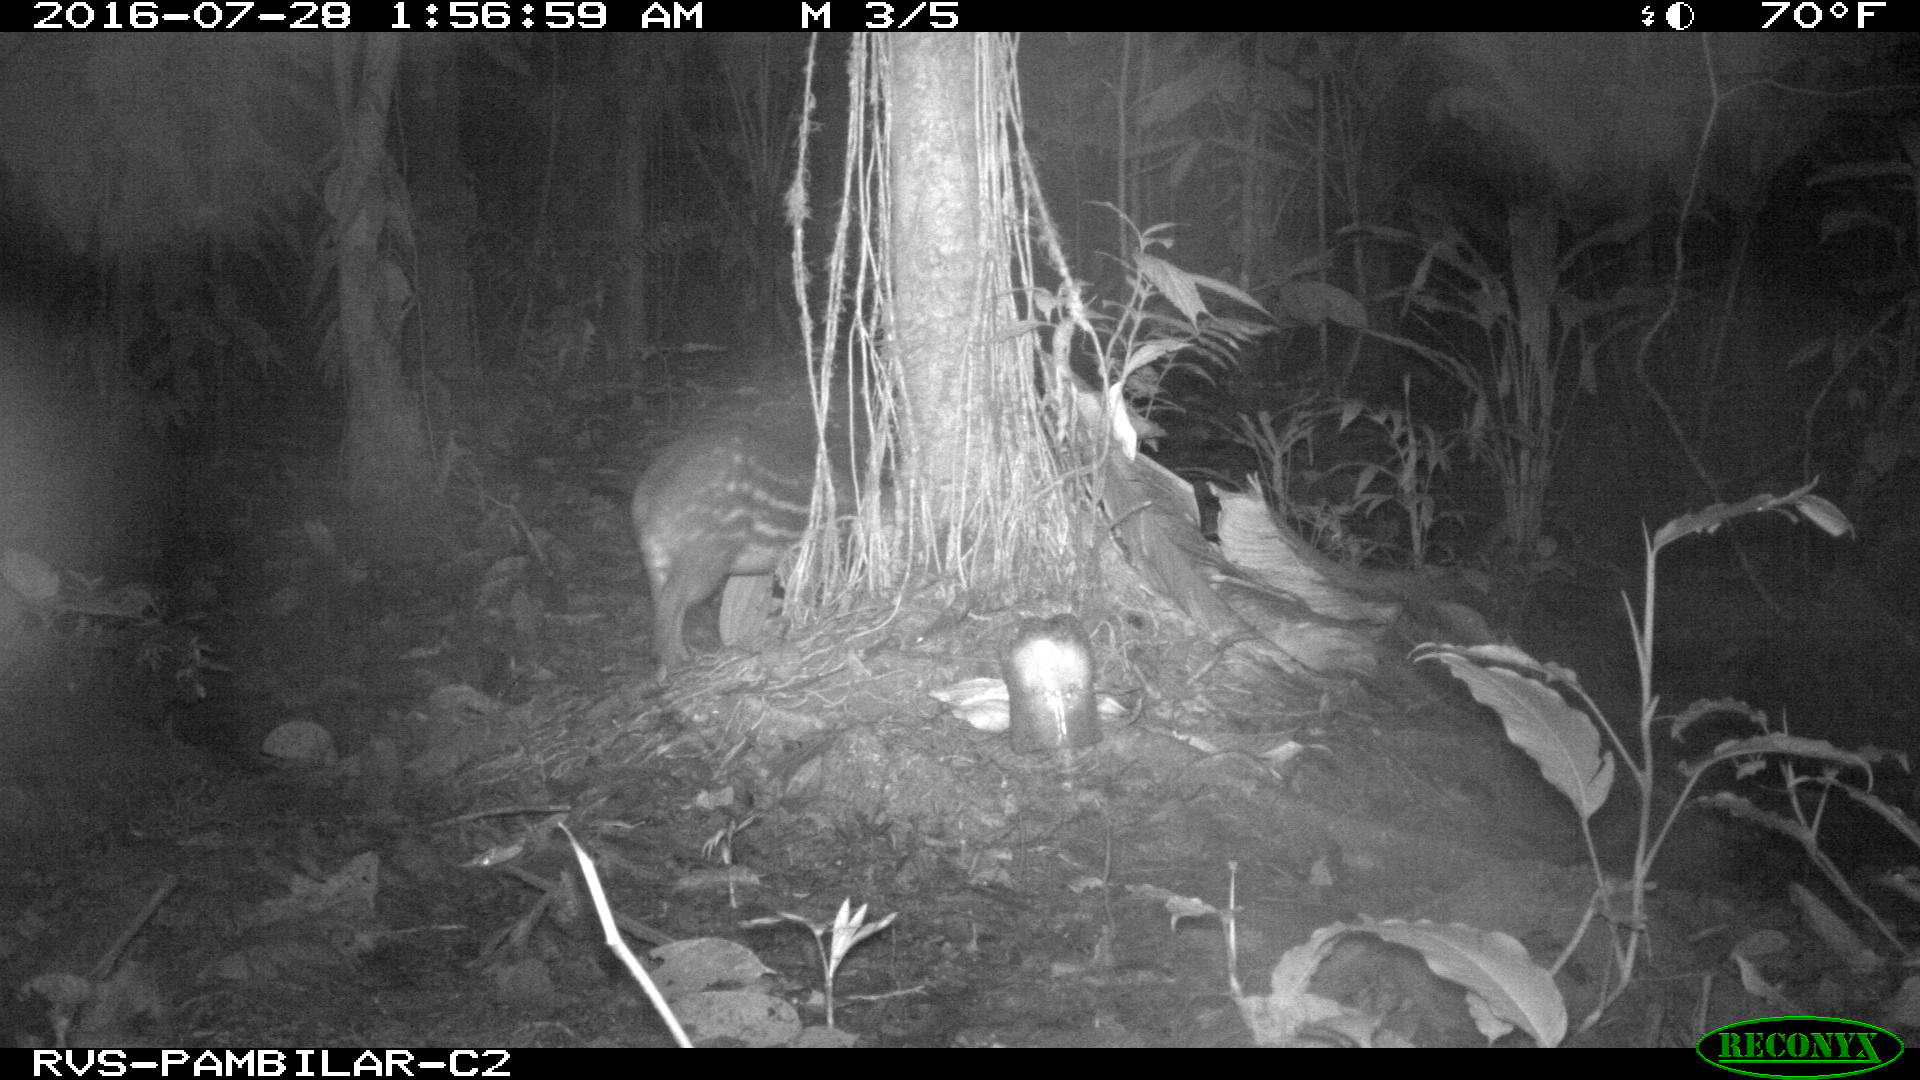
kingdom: Animalia
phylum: Chordata
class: Mammalia
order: Rodentia
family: Cuniculidae
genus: Cuniculus
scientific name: Cuniculus paca
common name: Lowland paca
